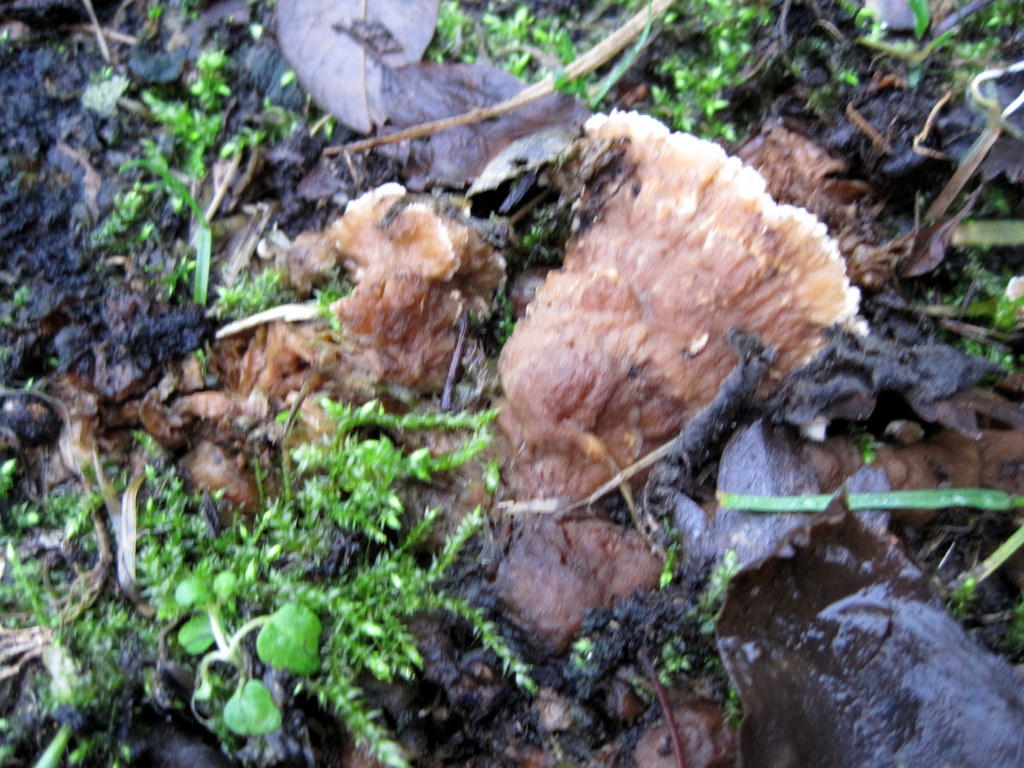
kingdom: Fungi
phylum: Basidiomycota
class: Agaricomycetes
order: Polyporales
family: Phanerochaetaceae
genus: Bjerkandera
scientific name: Bjerkandera adusta
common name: sveden sodporesvamp
